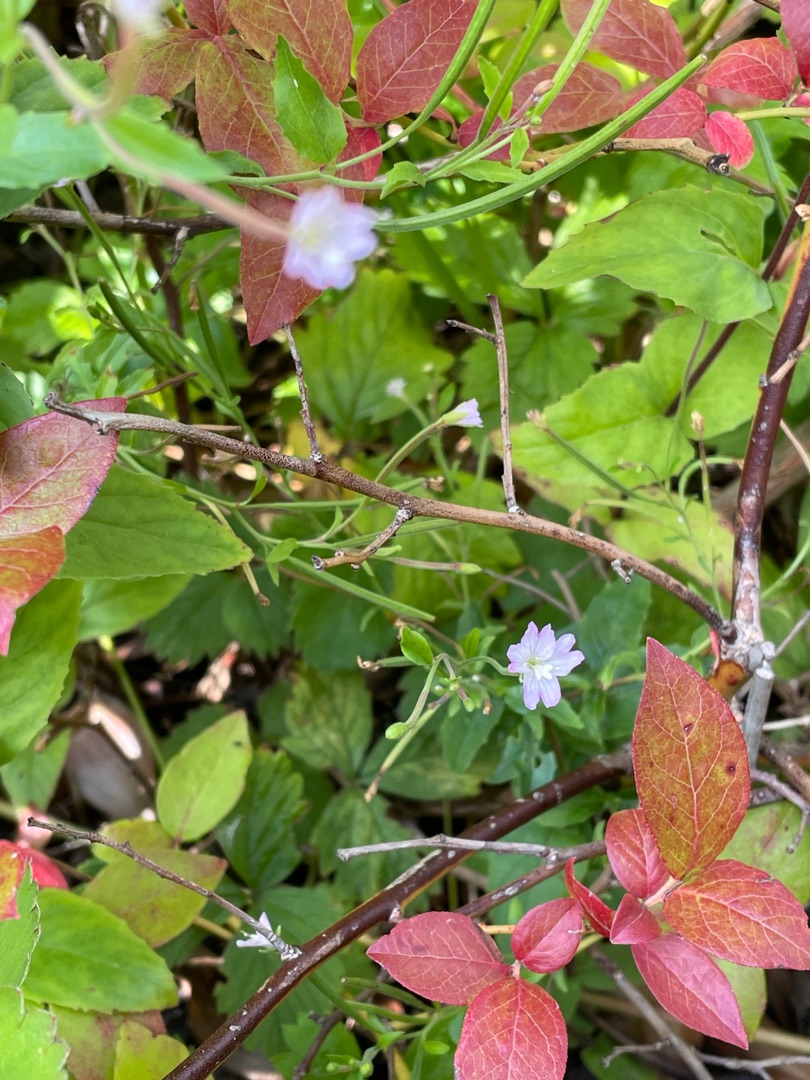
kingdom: Plantae
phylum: Tracheophyta
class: Magnoliopsida
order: Myrtales
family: Onagraceae
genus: Epilobium
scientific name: Epilobium montanum
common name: Glat dueurt
